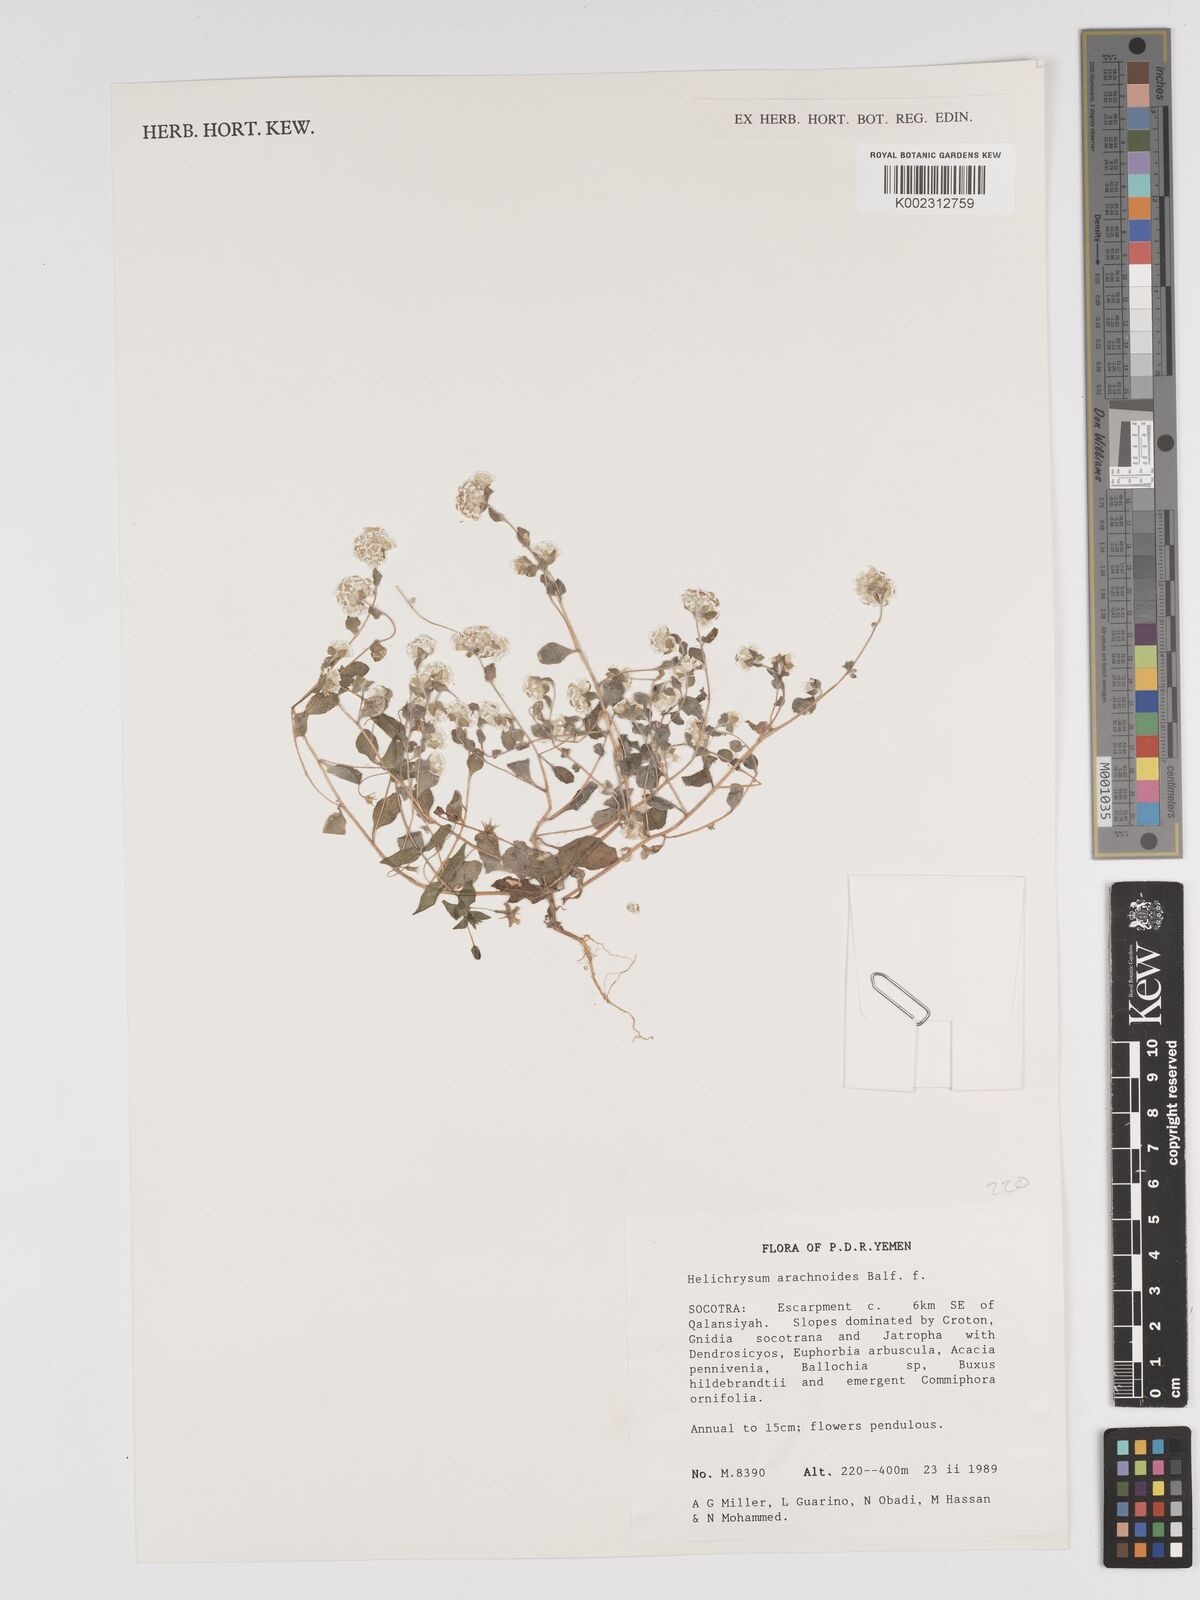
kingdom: Plantae
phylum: Tracheophyta
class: Magnoliopsida
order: Asterales
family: Asteraceae
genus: Libinhania
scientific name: Libinhania arachnoides
